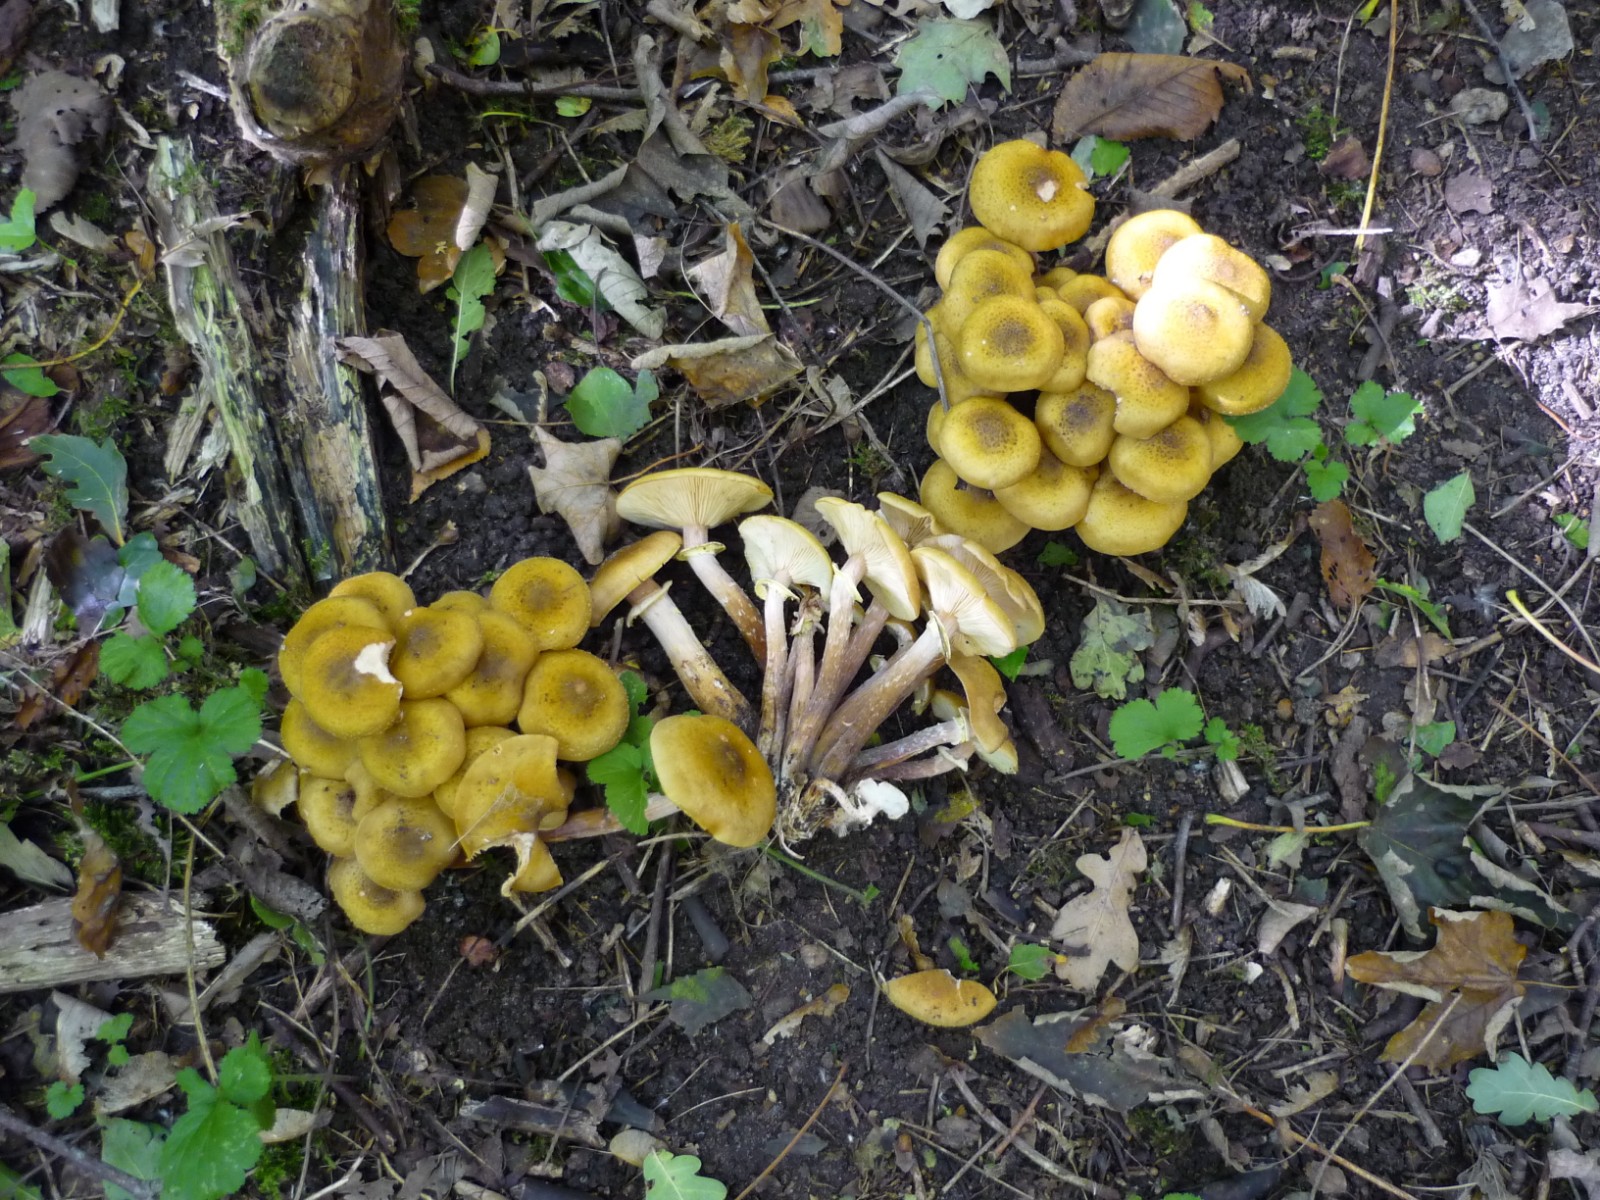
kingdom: Fungi
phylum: Basidiomycota
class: Agaricomycetes
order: Agaricales
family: Physalacriaceae
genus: Armillaria
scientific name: Armillaria mellea
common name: ægte honningsvamp
